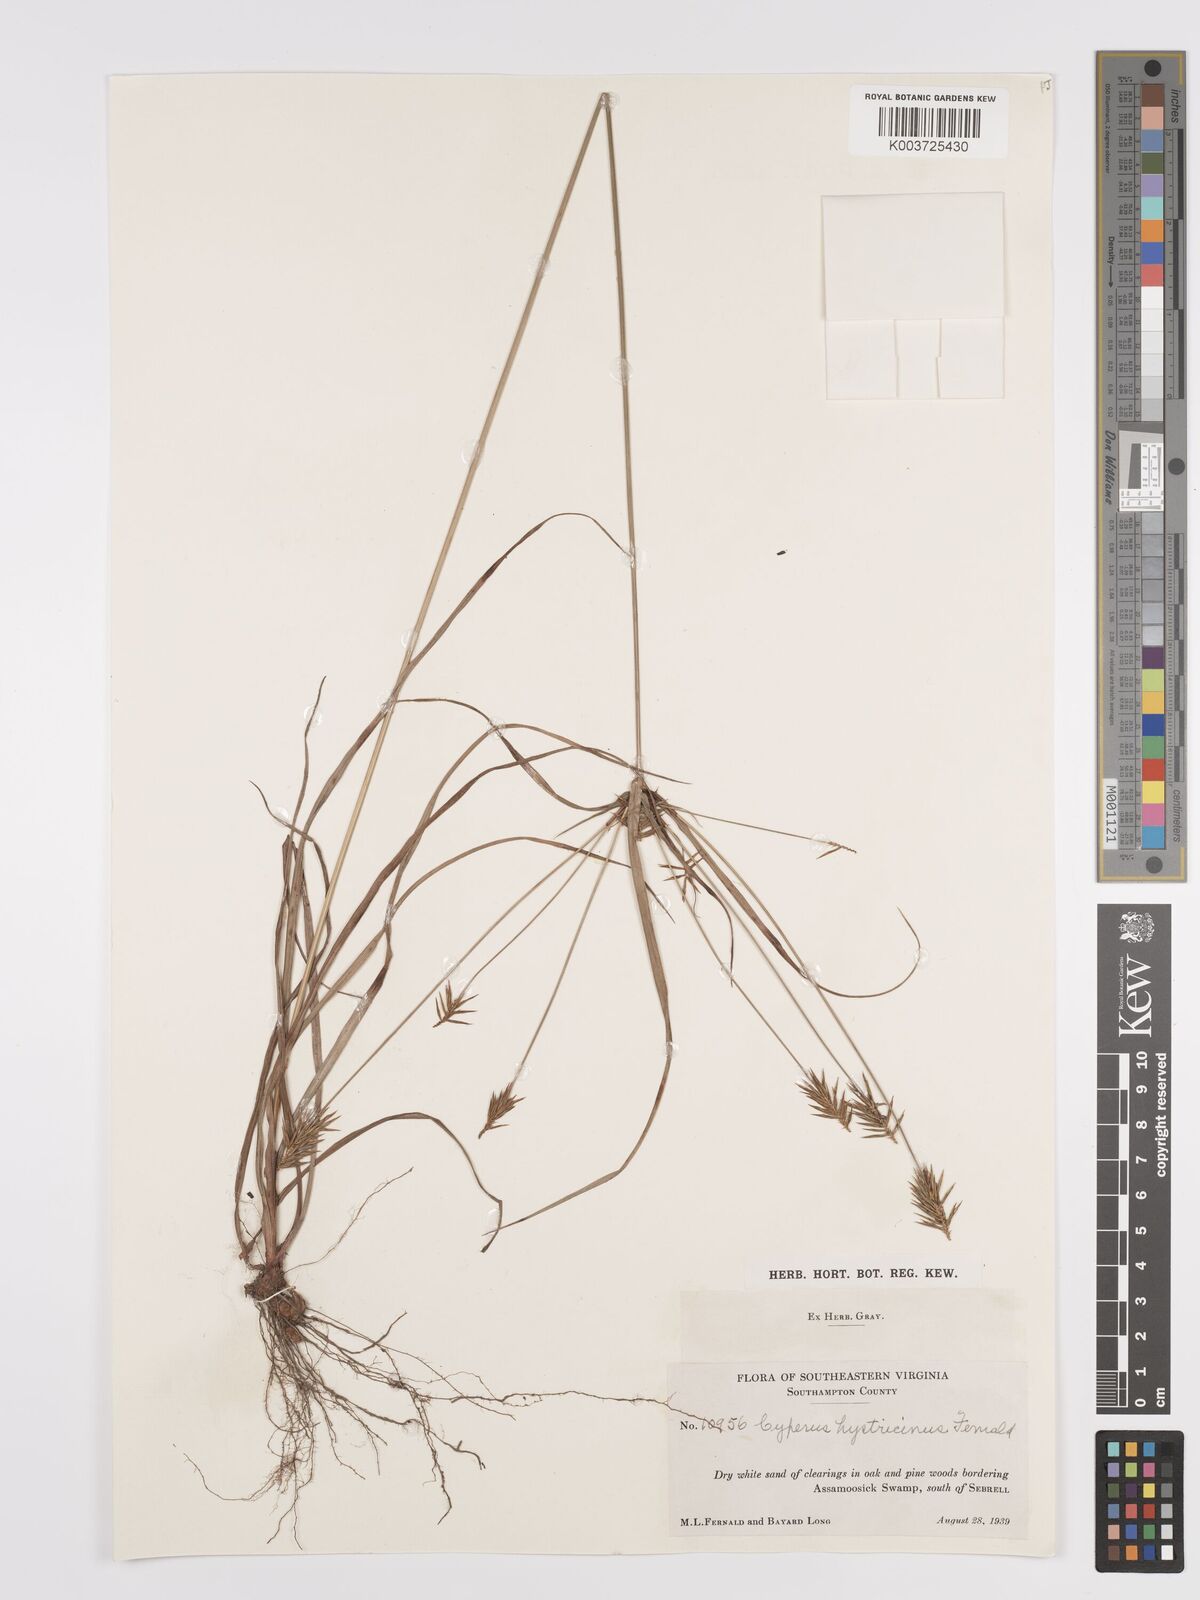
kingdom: Plantae
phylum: Tracheophyta
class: Liliopsida
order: Poales
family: Cyperaceae
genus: Cyperus
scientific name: Cyperus hystricinus
